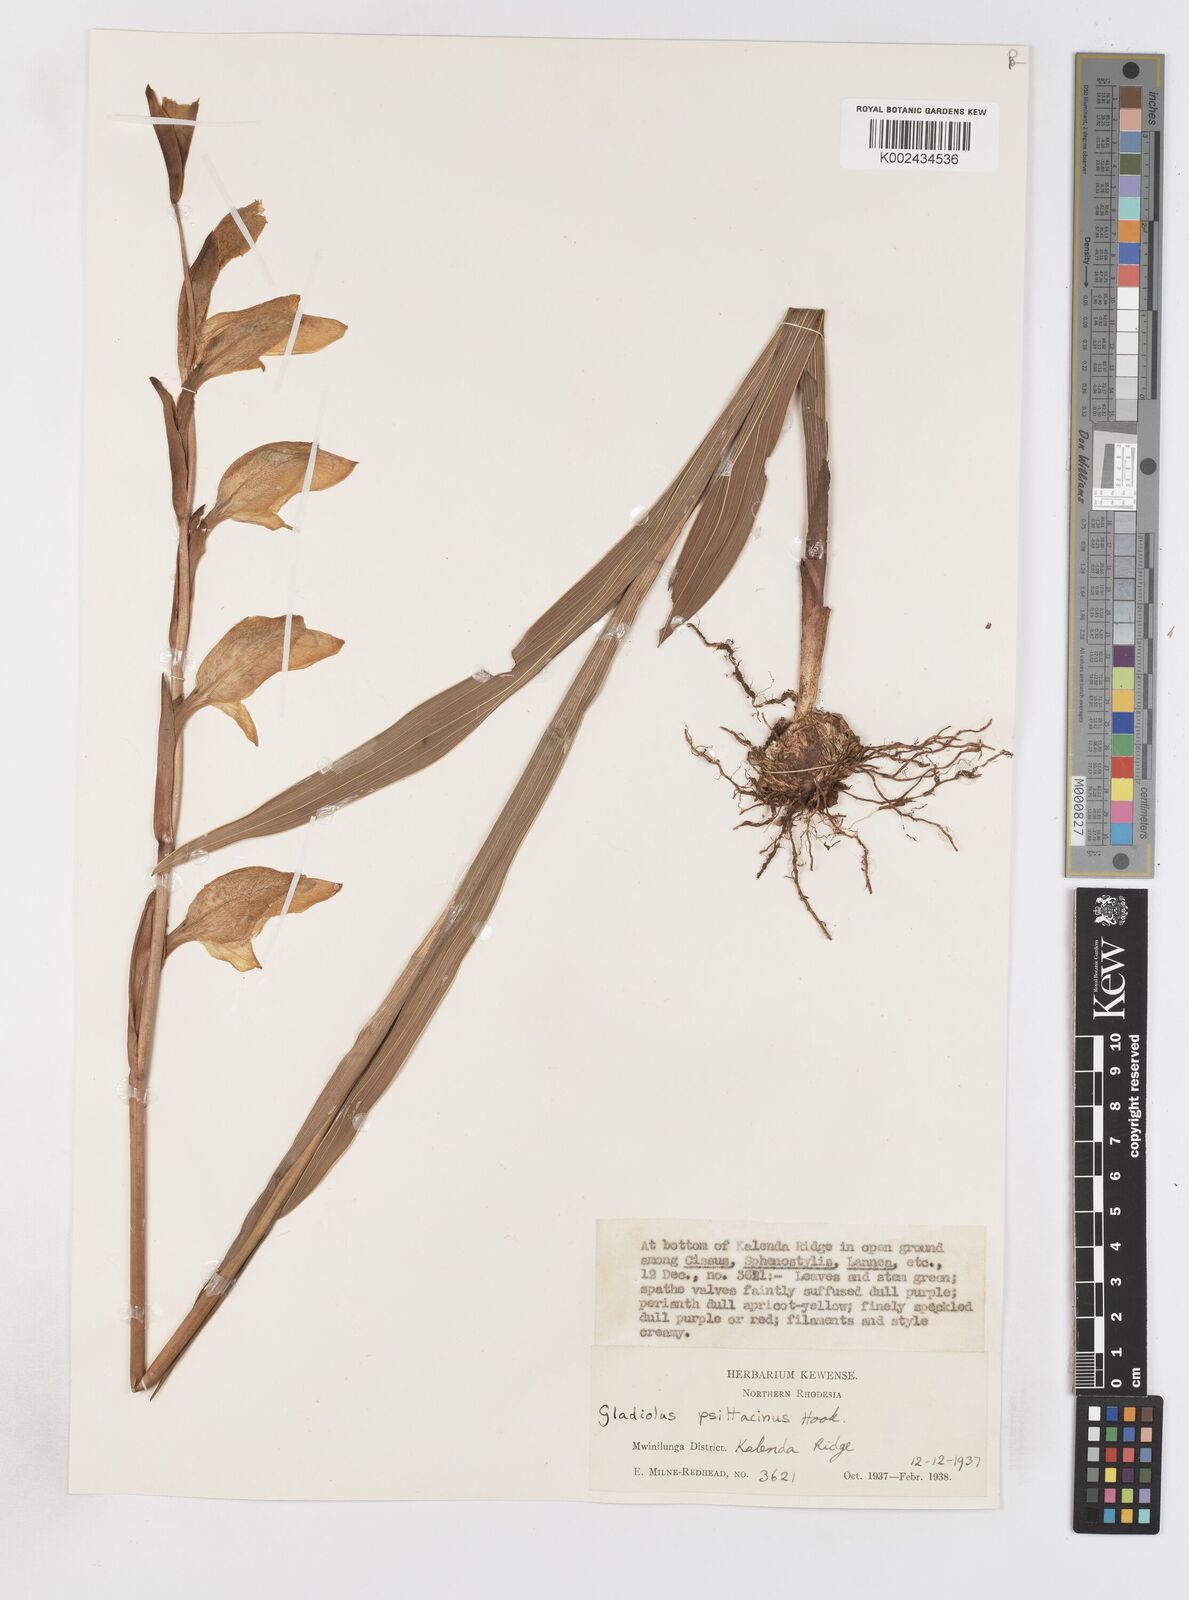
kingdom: Plantae
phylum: Tracheophyta
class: Liliopsida
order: Asparagales
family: Iridaceae
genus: Gladiolus
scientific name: Gladiolus dalenii
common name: Cornflag
